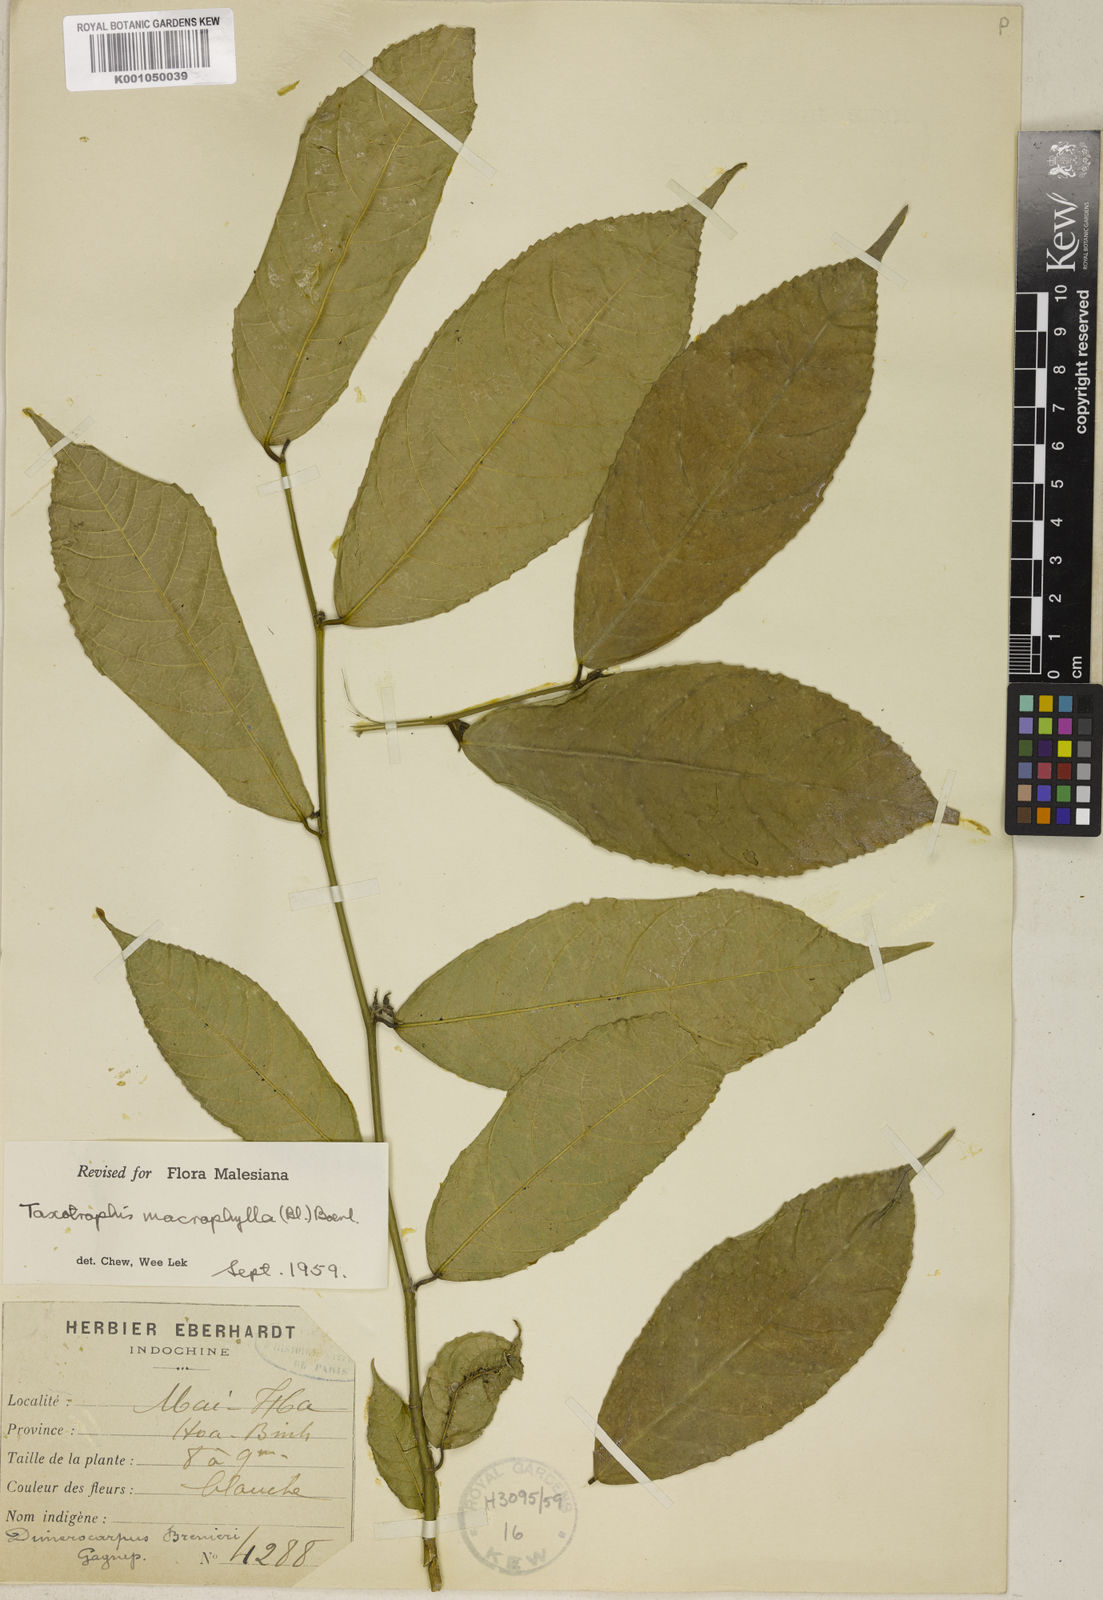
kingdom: Plantae
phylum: Tracheophyta
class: Magnoliopsida
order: Rosales
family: Moraceae
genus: Taxotrophis
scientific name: Taxotrophis macrophylla
